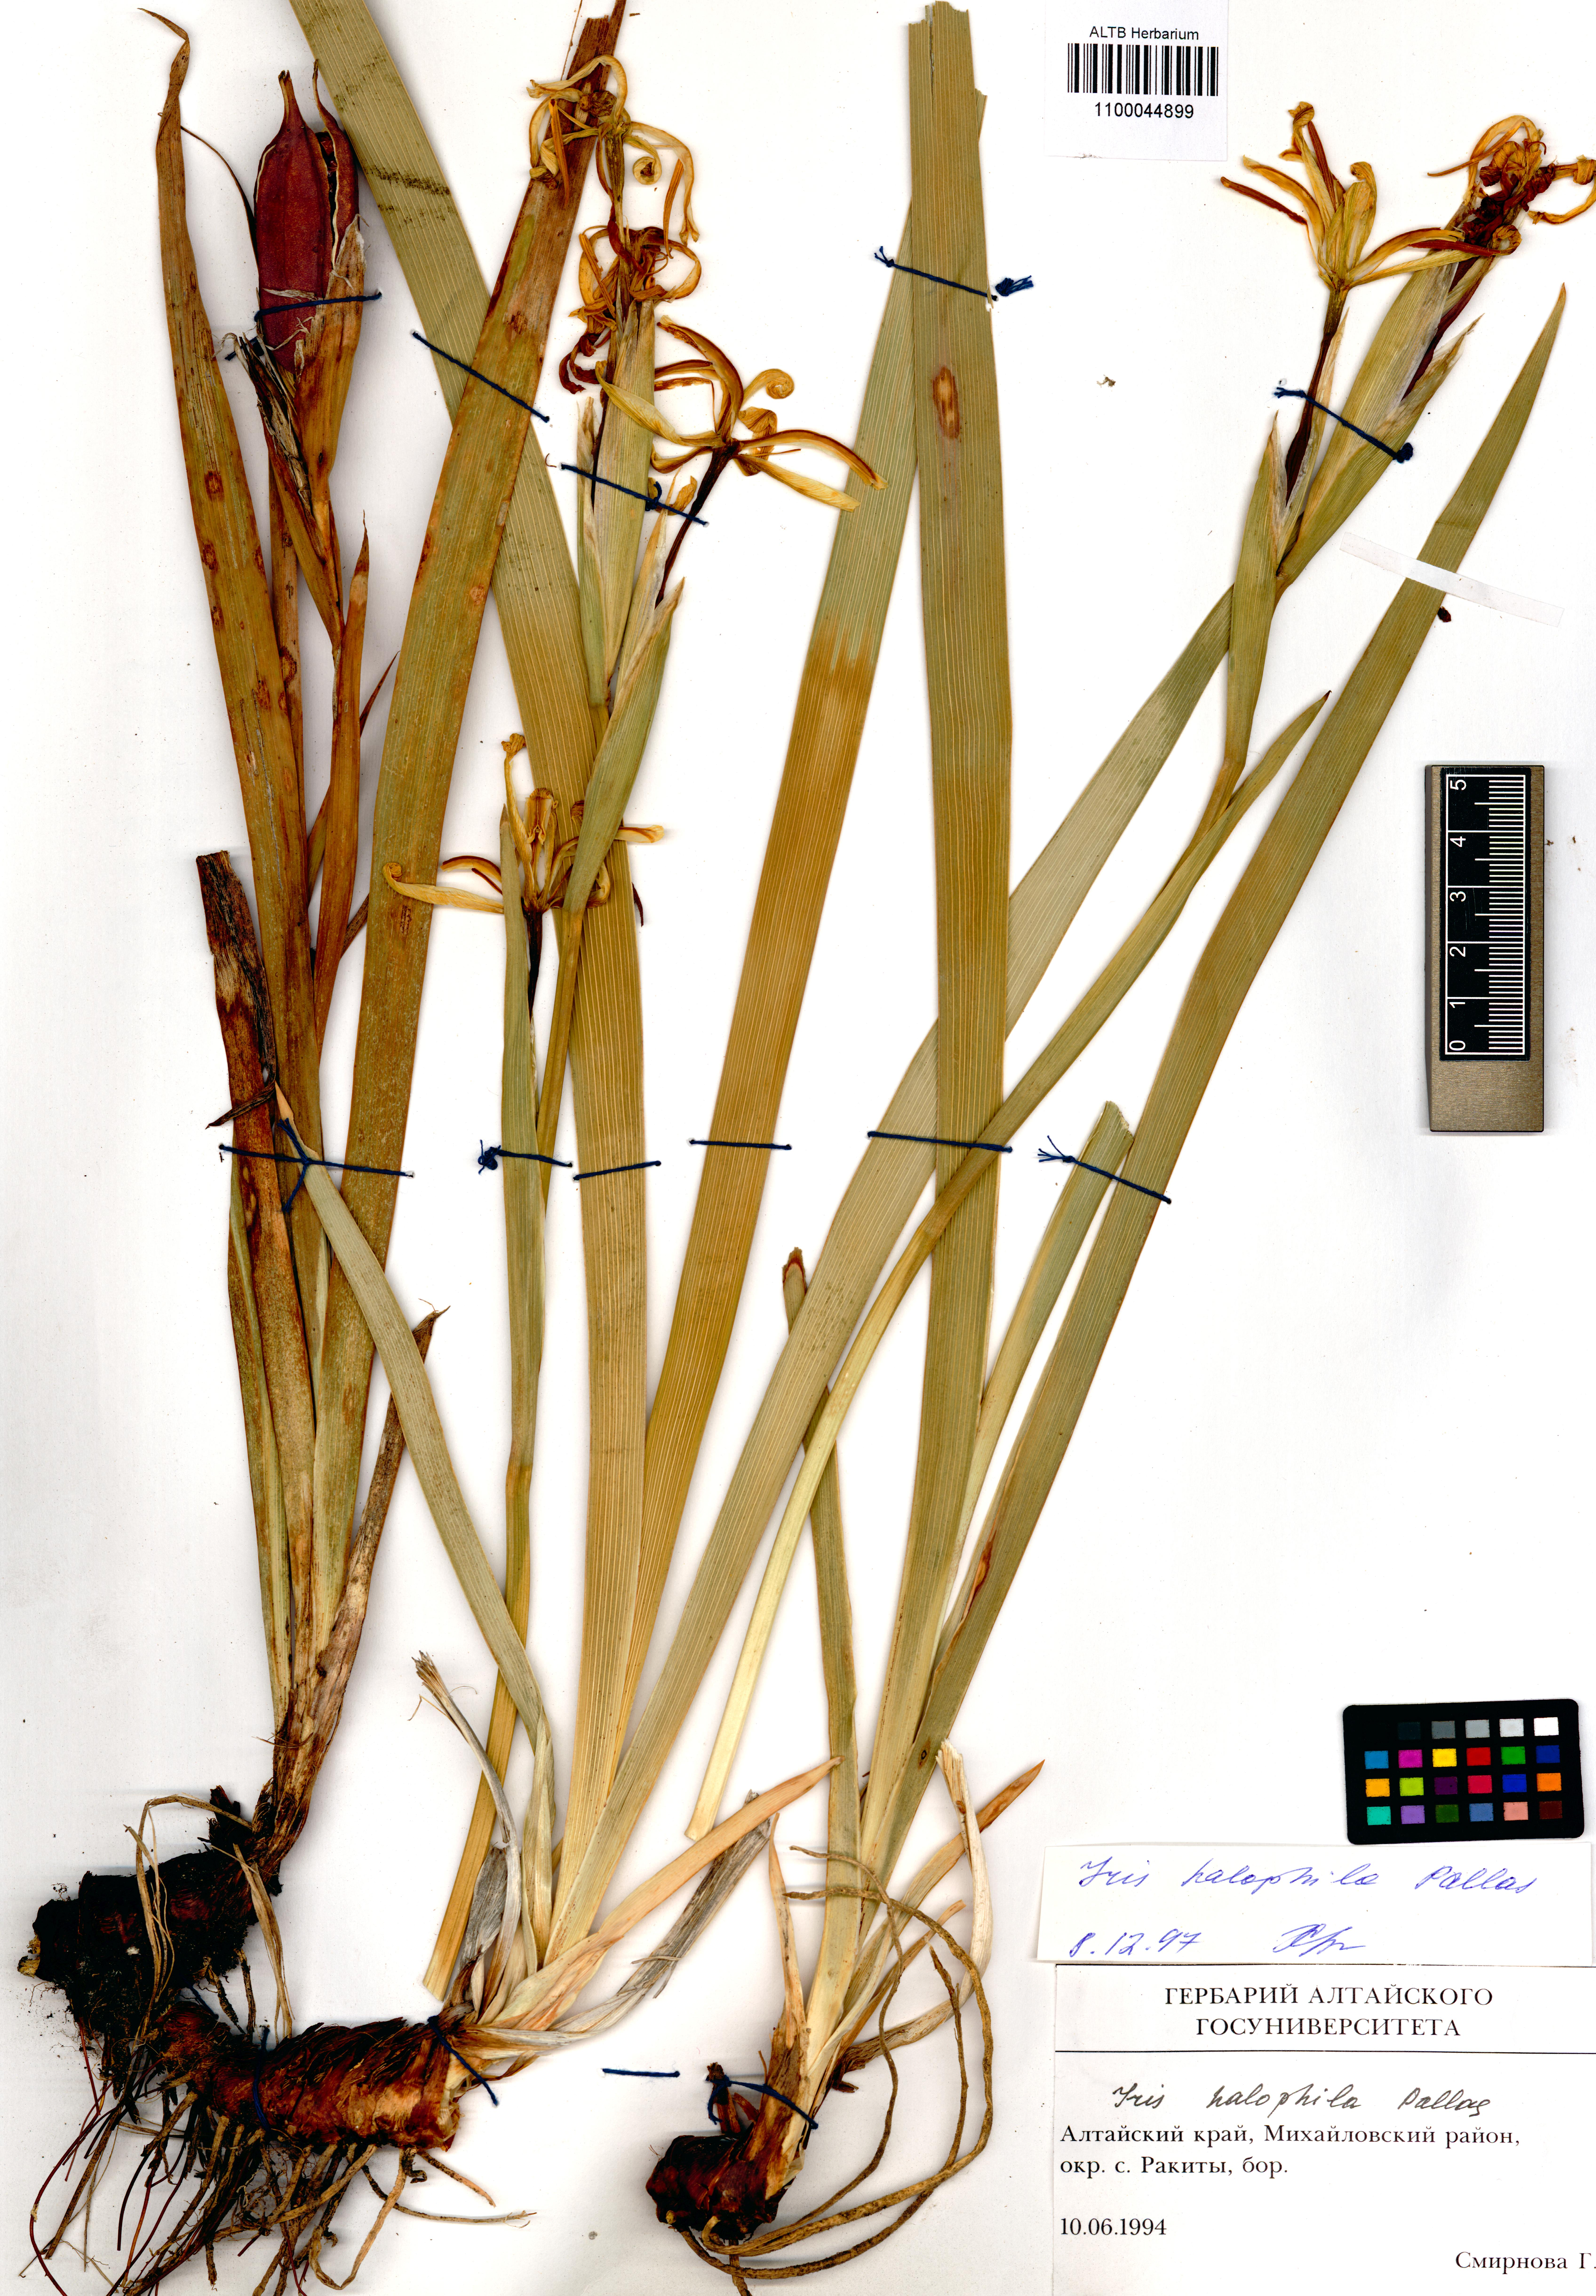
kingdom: Plantae
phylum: Tracheophyta
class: Liliopsida
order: Asparagales
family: Iridaceae
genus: Iris
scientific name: Iris halophila
